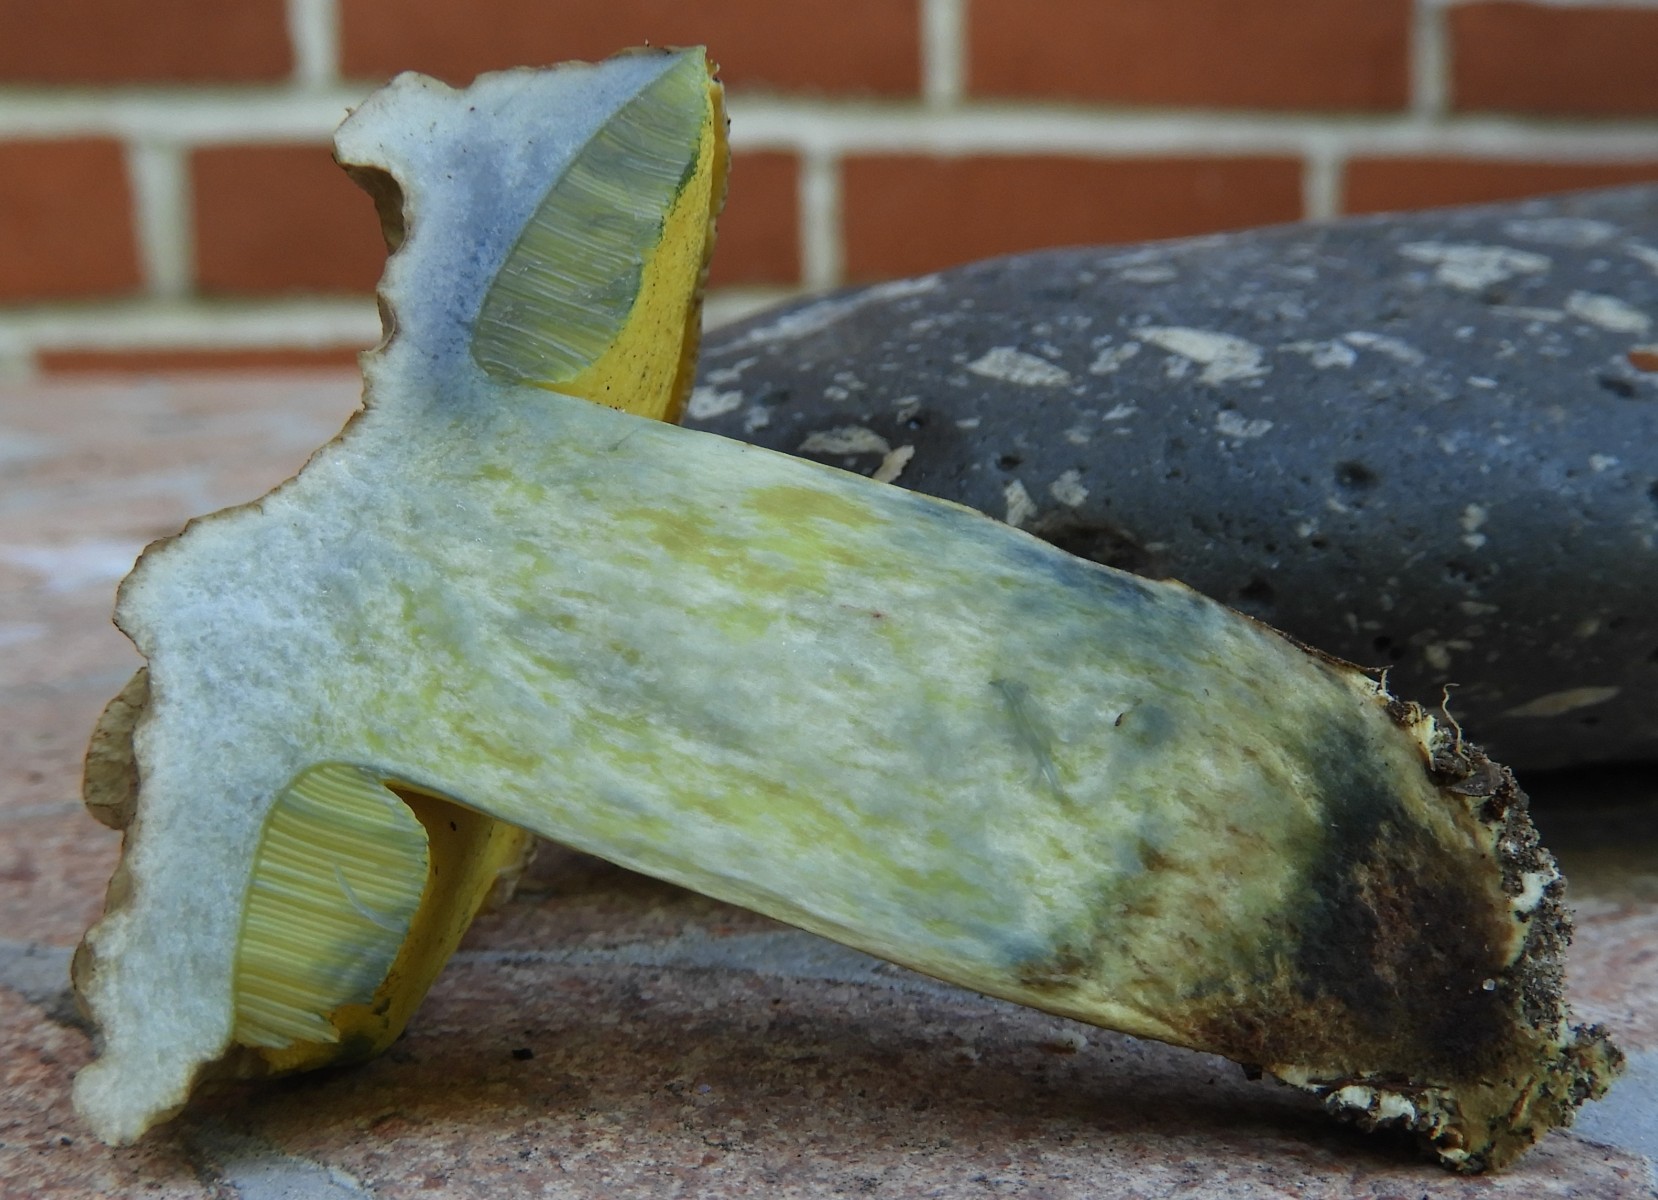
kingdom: Fungi
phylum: Basidiomycota
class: Agaricomycetes
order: Boletales
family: Boletaceae
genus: Caloboletus
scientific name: Caloboletus radicans
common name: rod-rørhat
